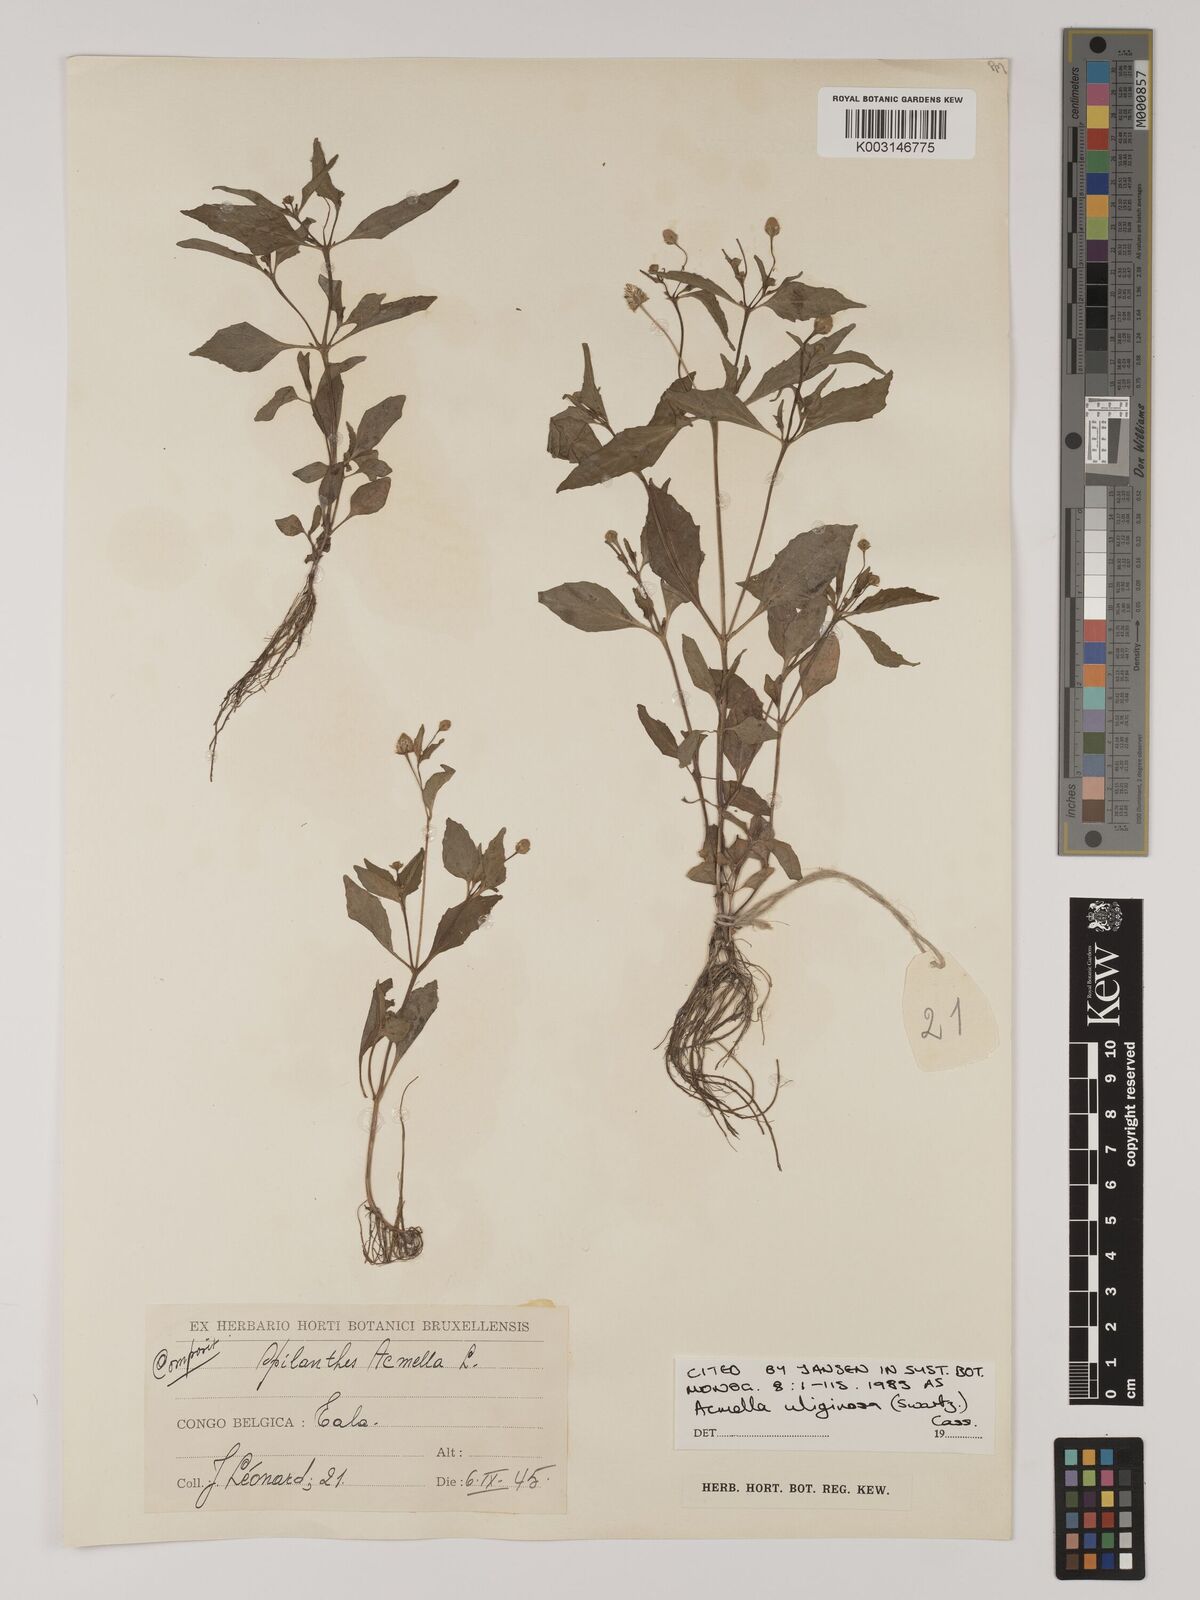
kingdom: Plantae
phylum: Tracheophyta
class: Magnoliopsida
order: Asterales
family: Asteraceae
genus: Acmella
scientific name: Acmella uliginosa
